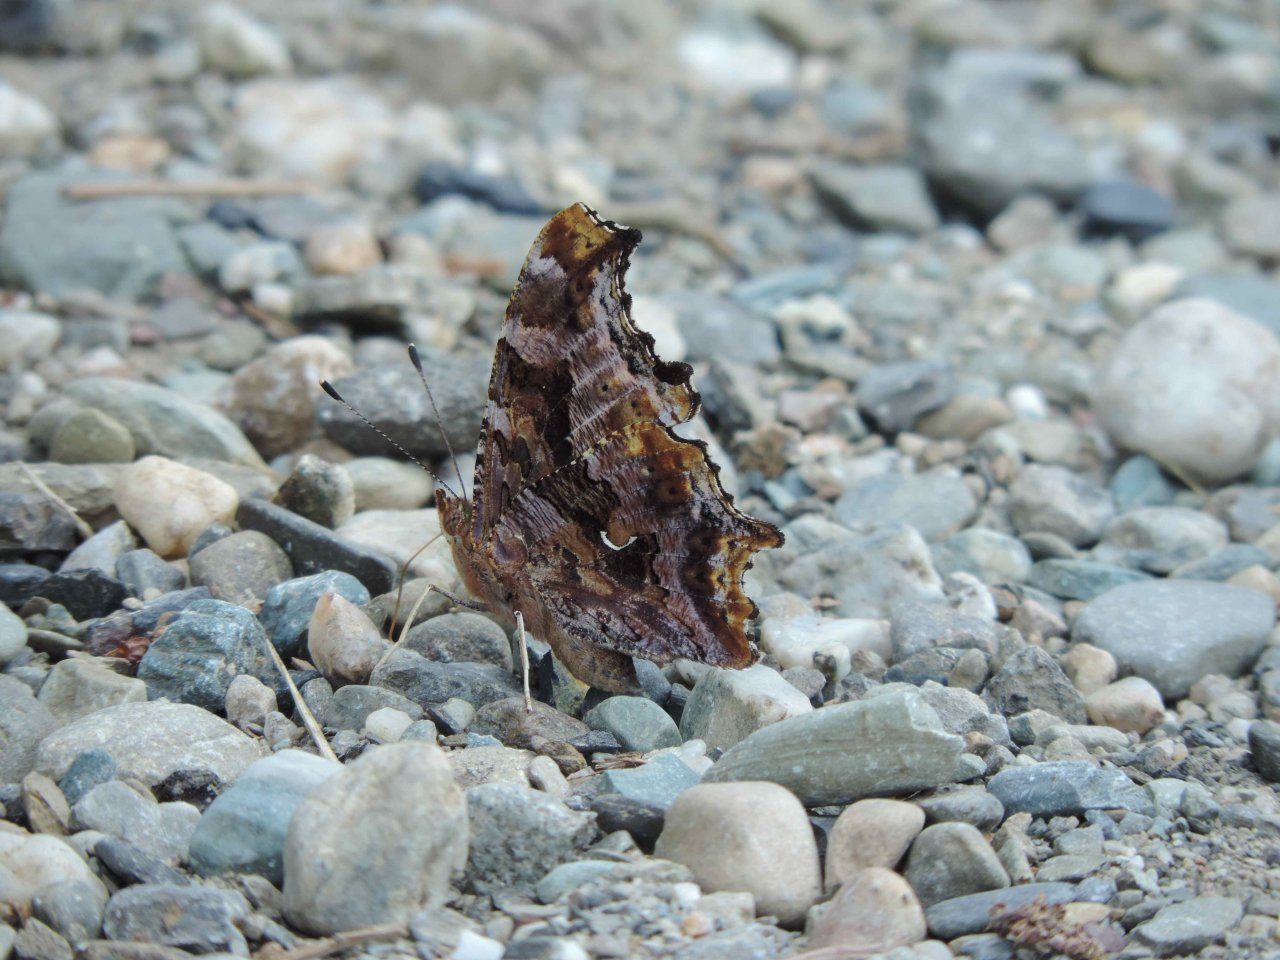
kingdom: Animalia
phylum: Arthropoda
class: Insecta
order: Lepidoptera
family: Nymphalidae
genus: Polygonia
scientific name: Polygonia comma
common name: Eastern Comma
